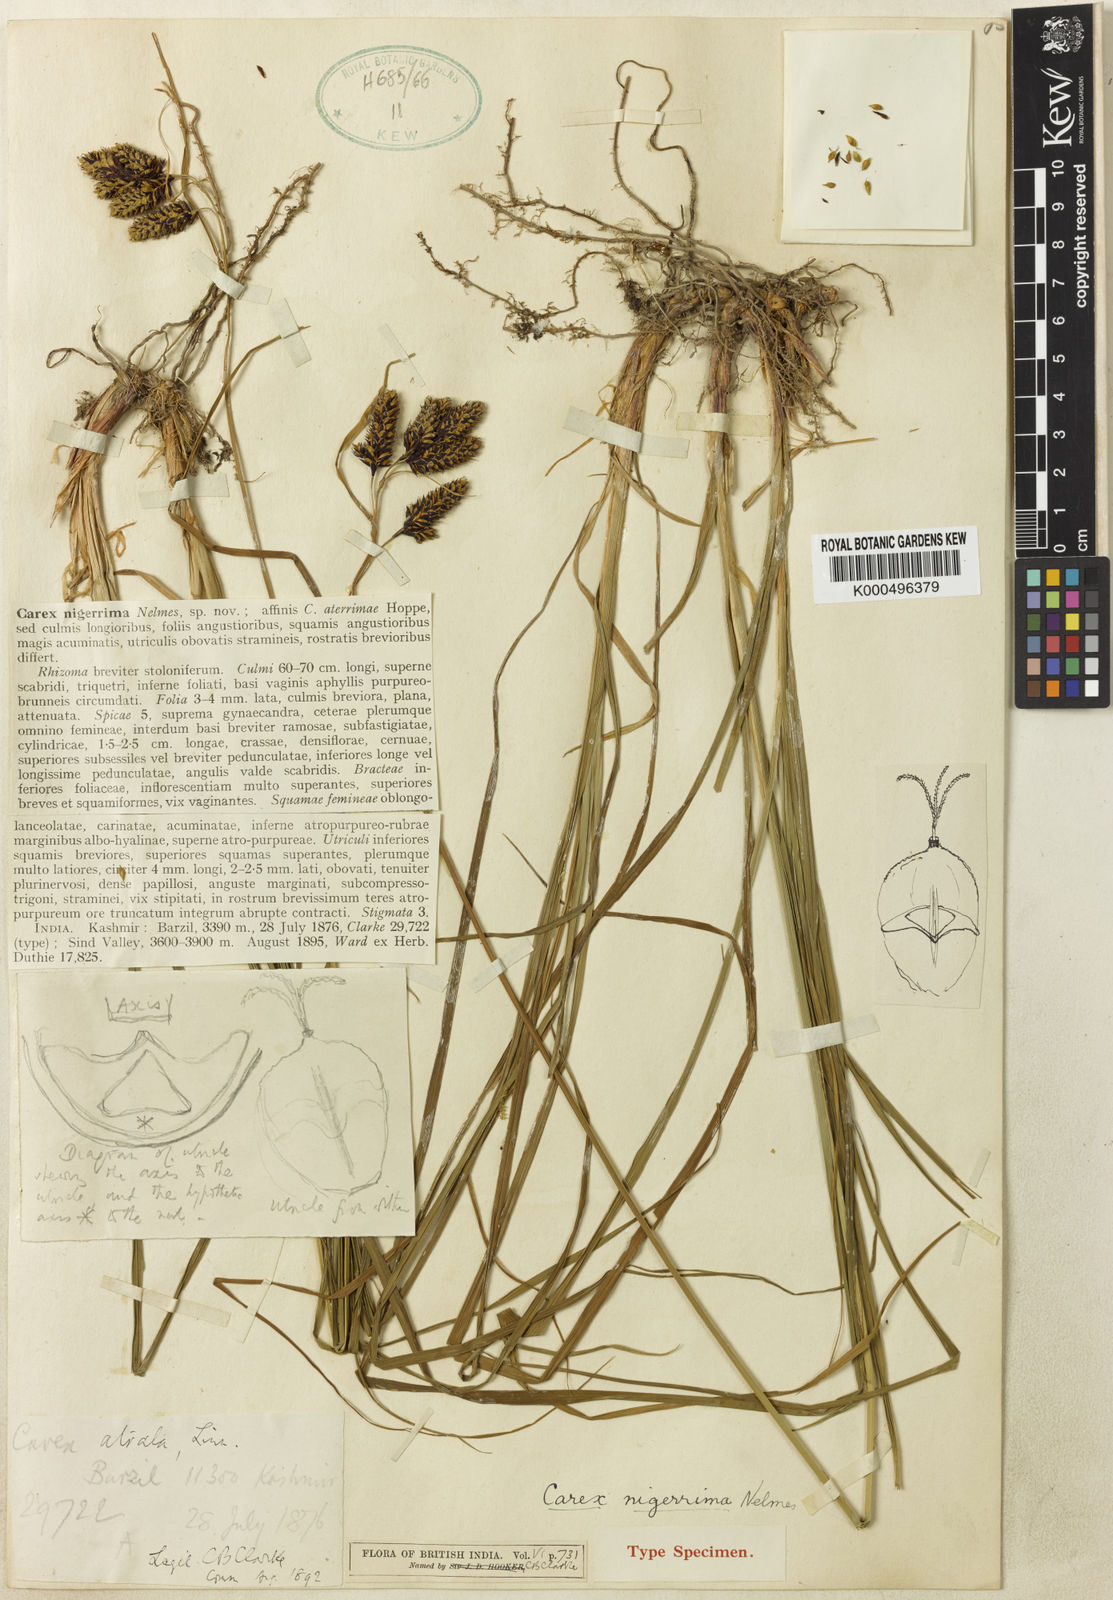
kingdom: Plantae
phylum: Tracheophyta
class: Liliopsida
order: Poales
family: Cyperaceae
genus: Carex
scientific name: Carex nigerrima
